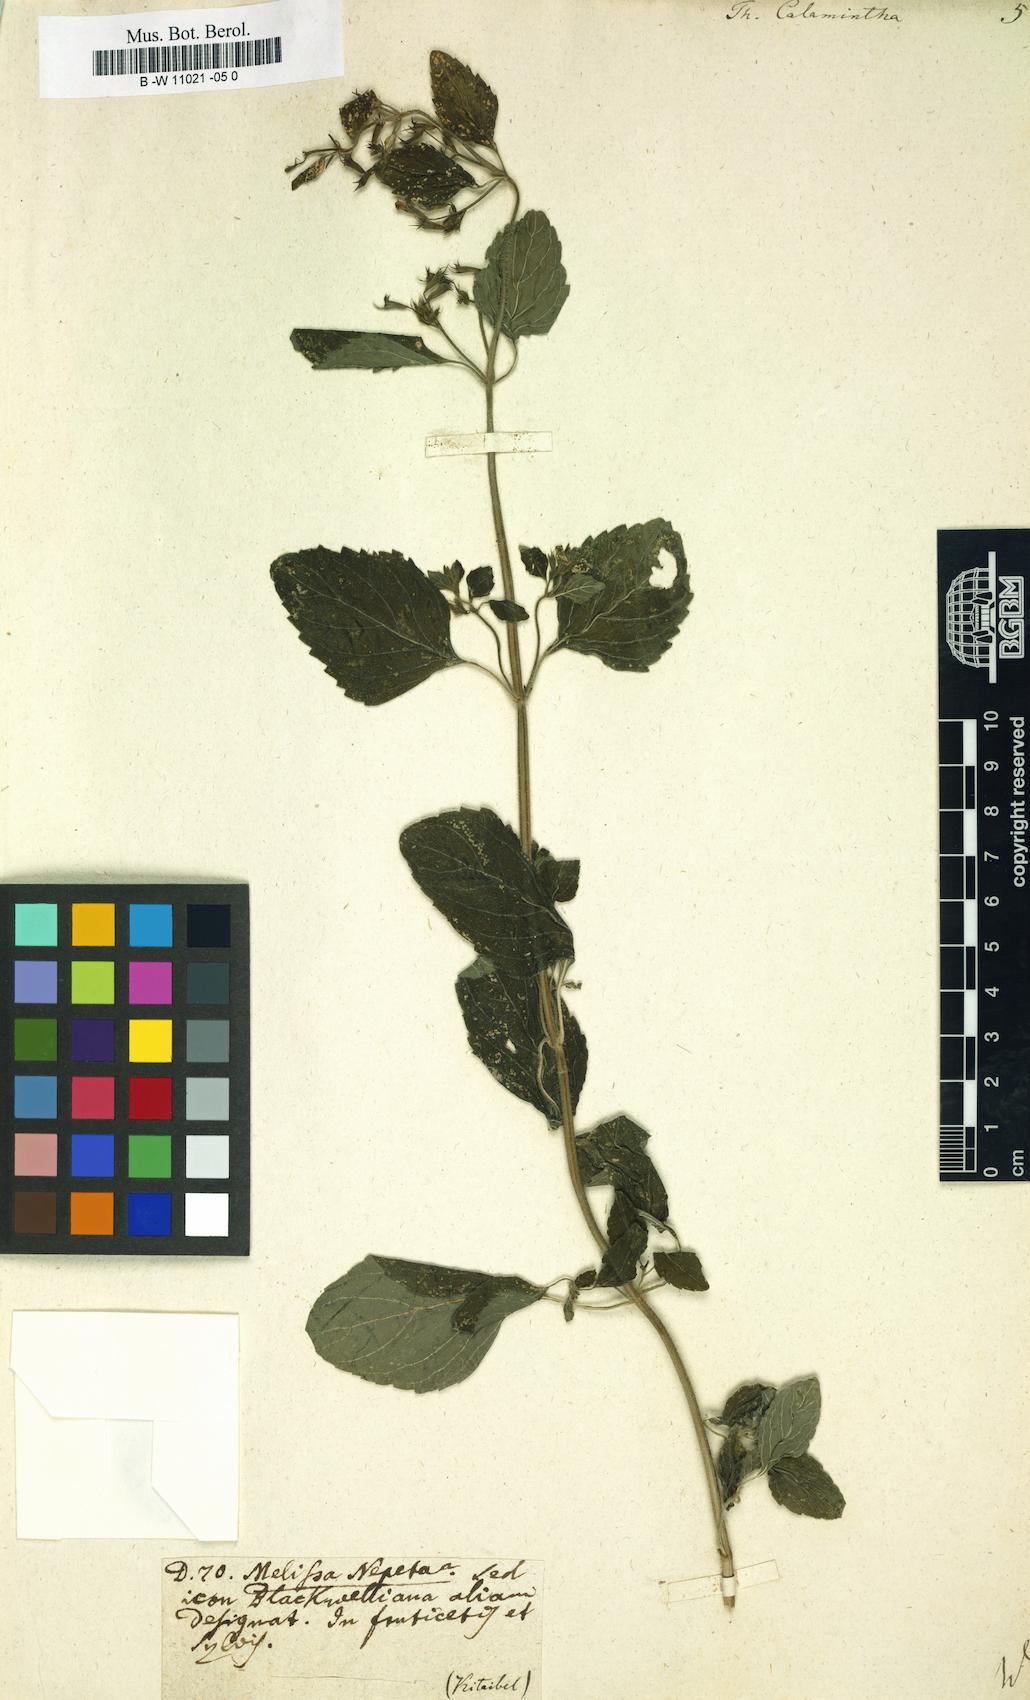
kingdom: Plantae
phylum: Tracheophyta
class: Magnoliopsida
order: Lamiales
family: Lamiaceae
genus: Clinopodium
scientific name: Clinopodium nepeta
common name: Lesser calamint
